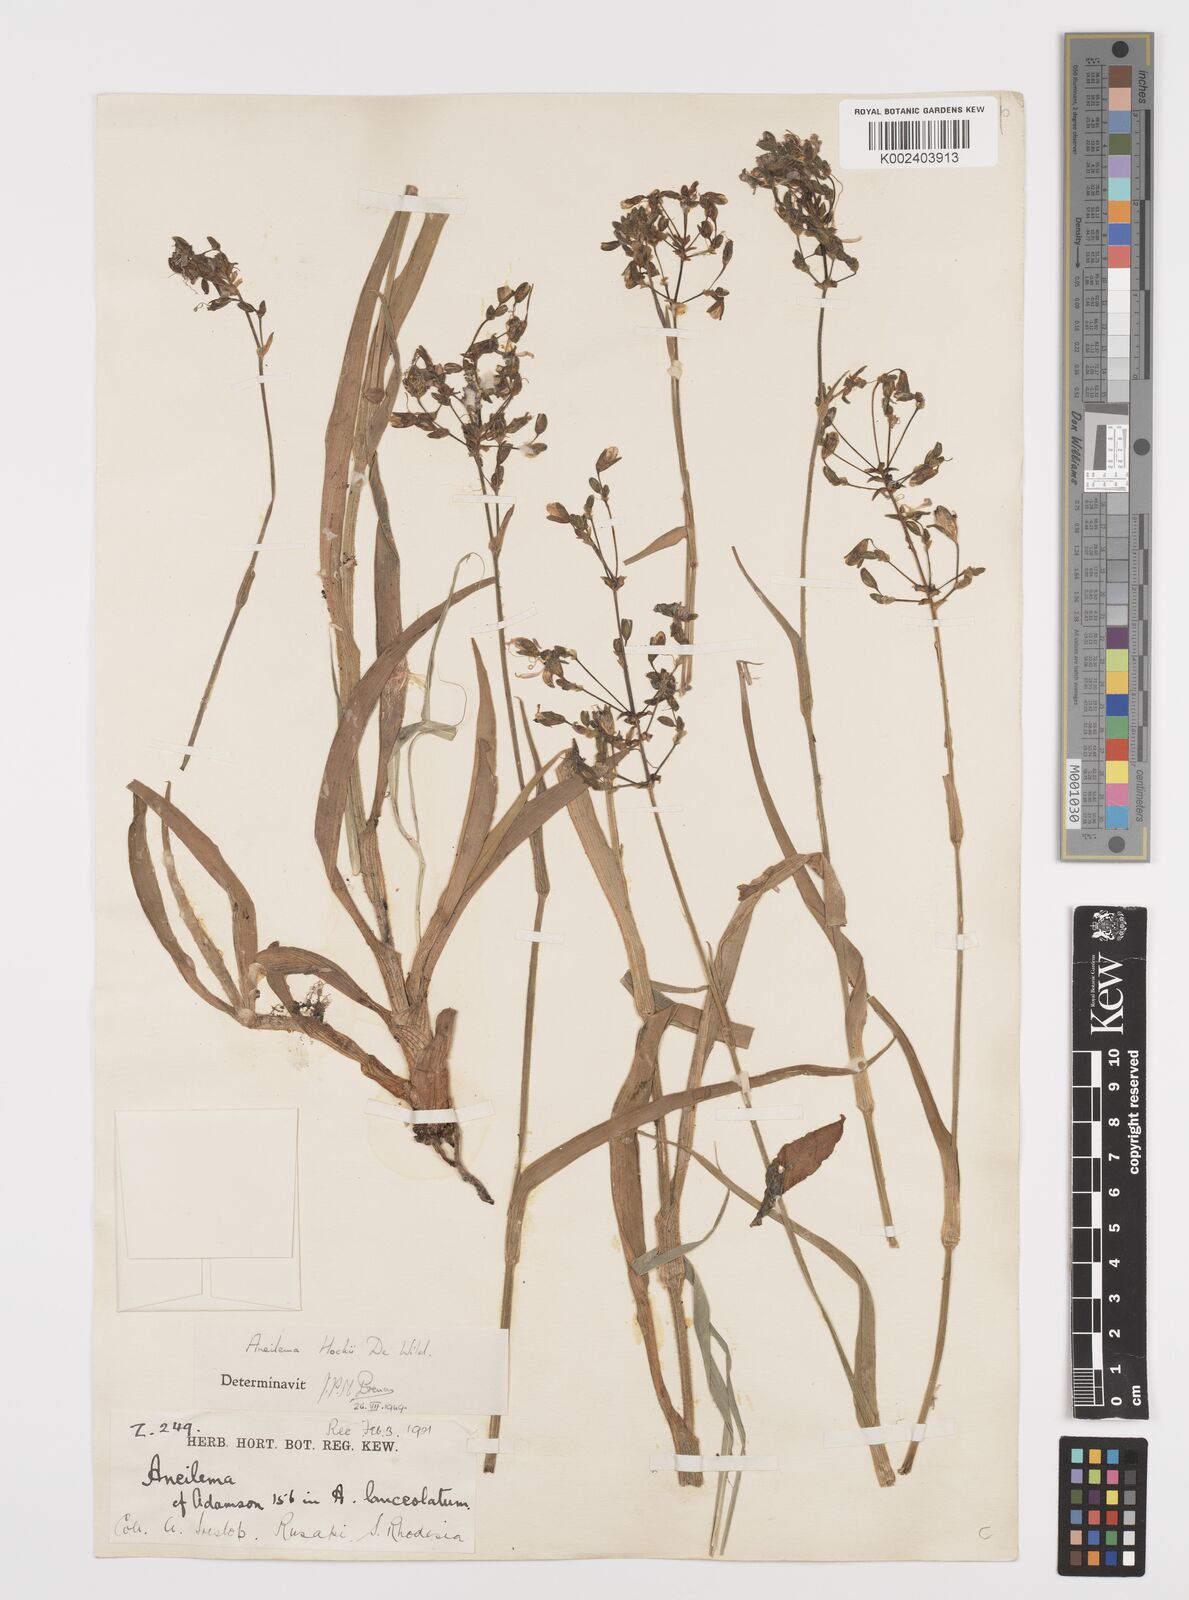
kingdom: Plantae
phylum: Tracheophyta
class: Liliopsida
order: Commelinales
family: Commelinaceae
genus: Aneilema
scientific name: Aneilema hockii
